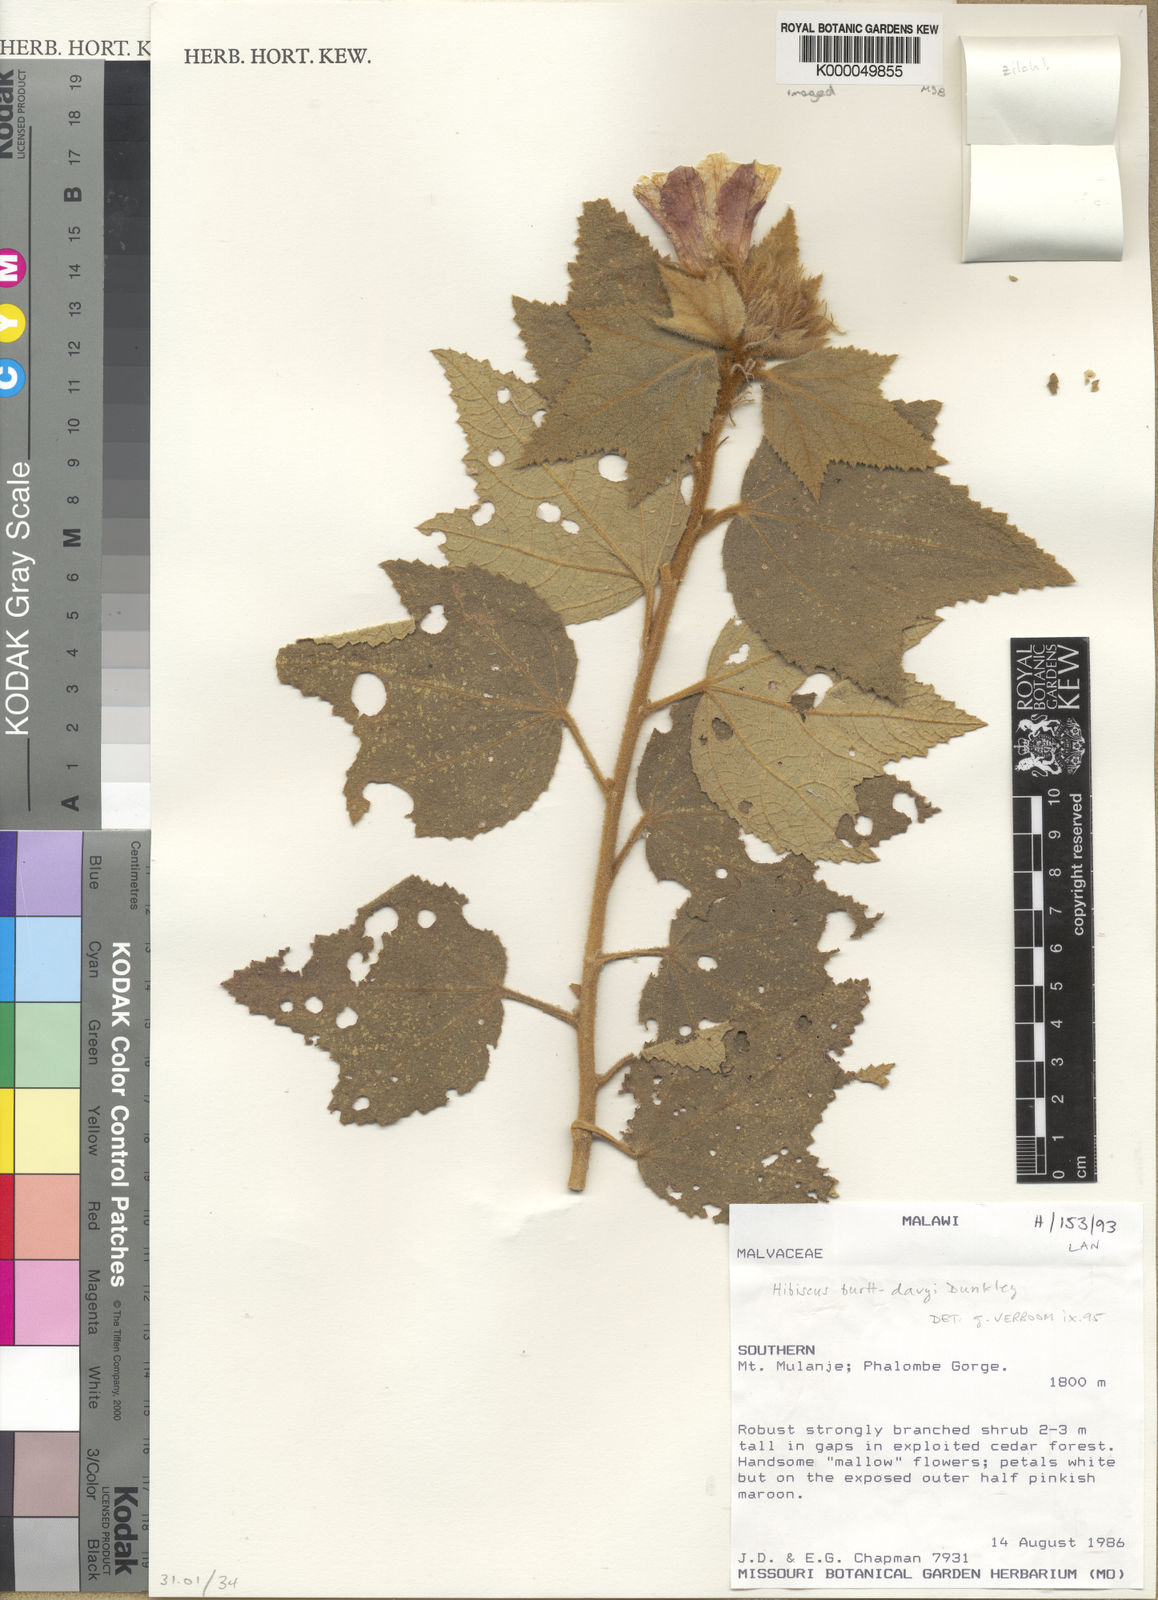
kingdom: Plantae
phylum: Tracheophyta
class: Magnoliopsida
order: Malvales
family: Malvaceae
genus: Hibiscus
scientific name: Hibiscus burtt-davyi
